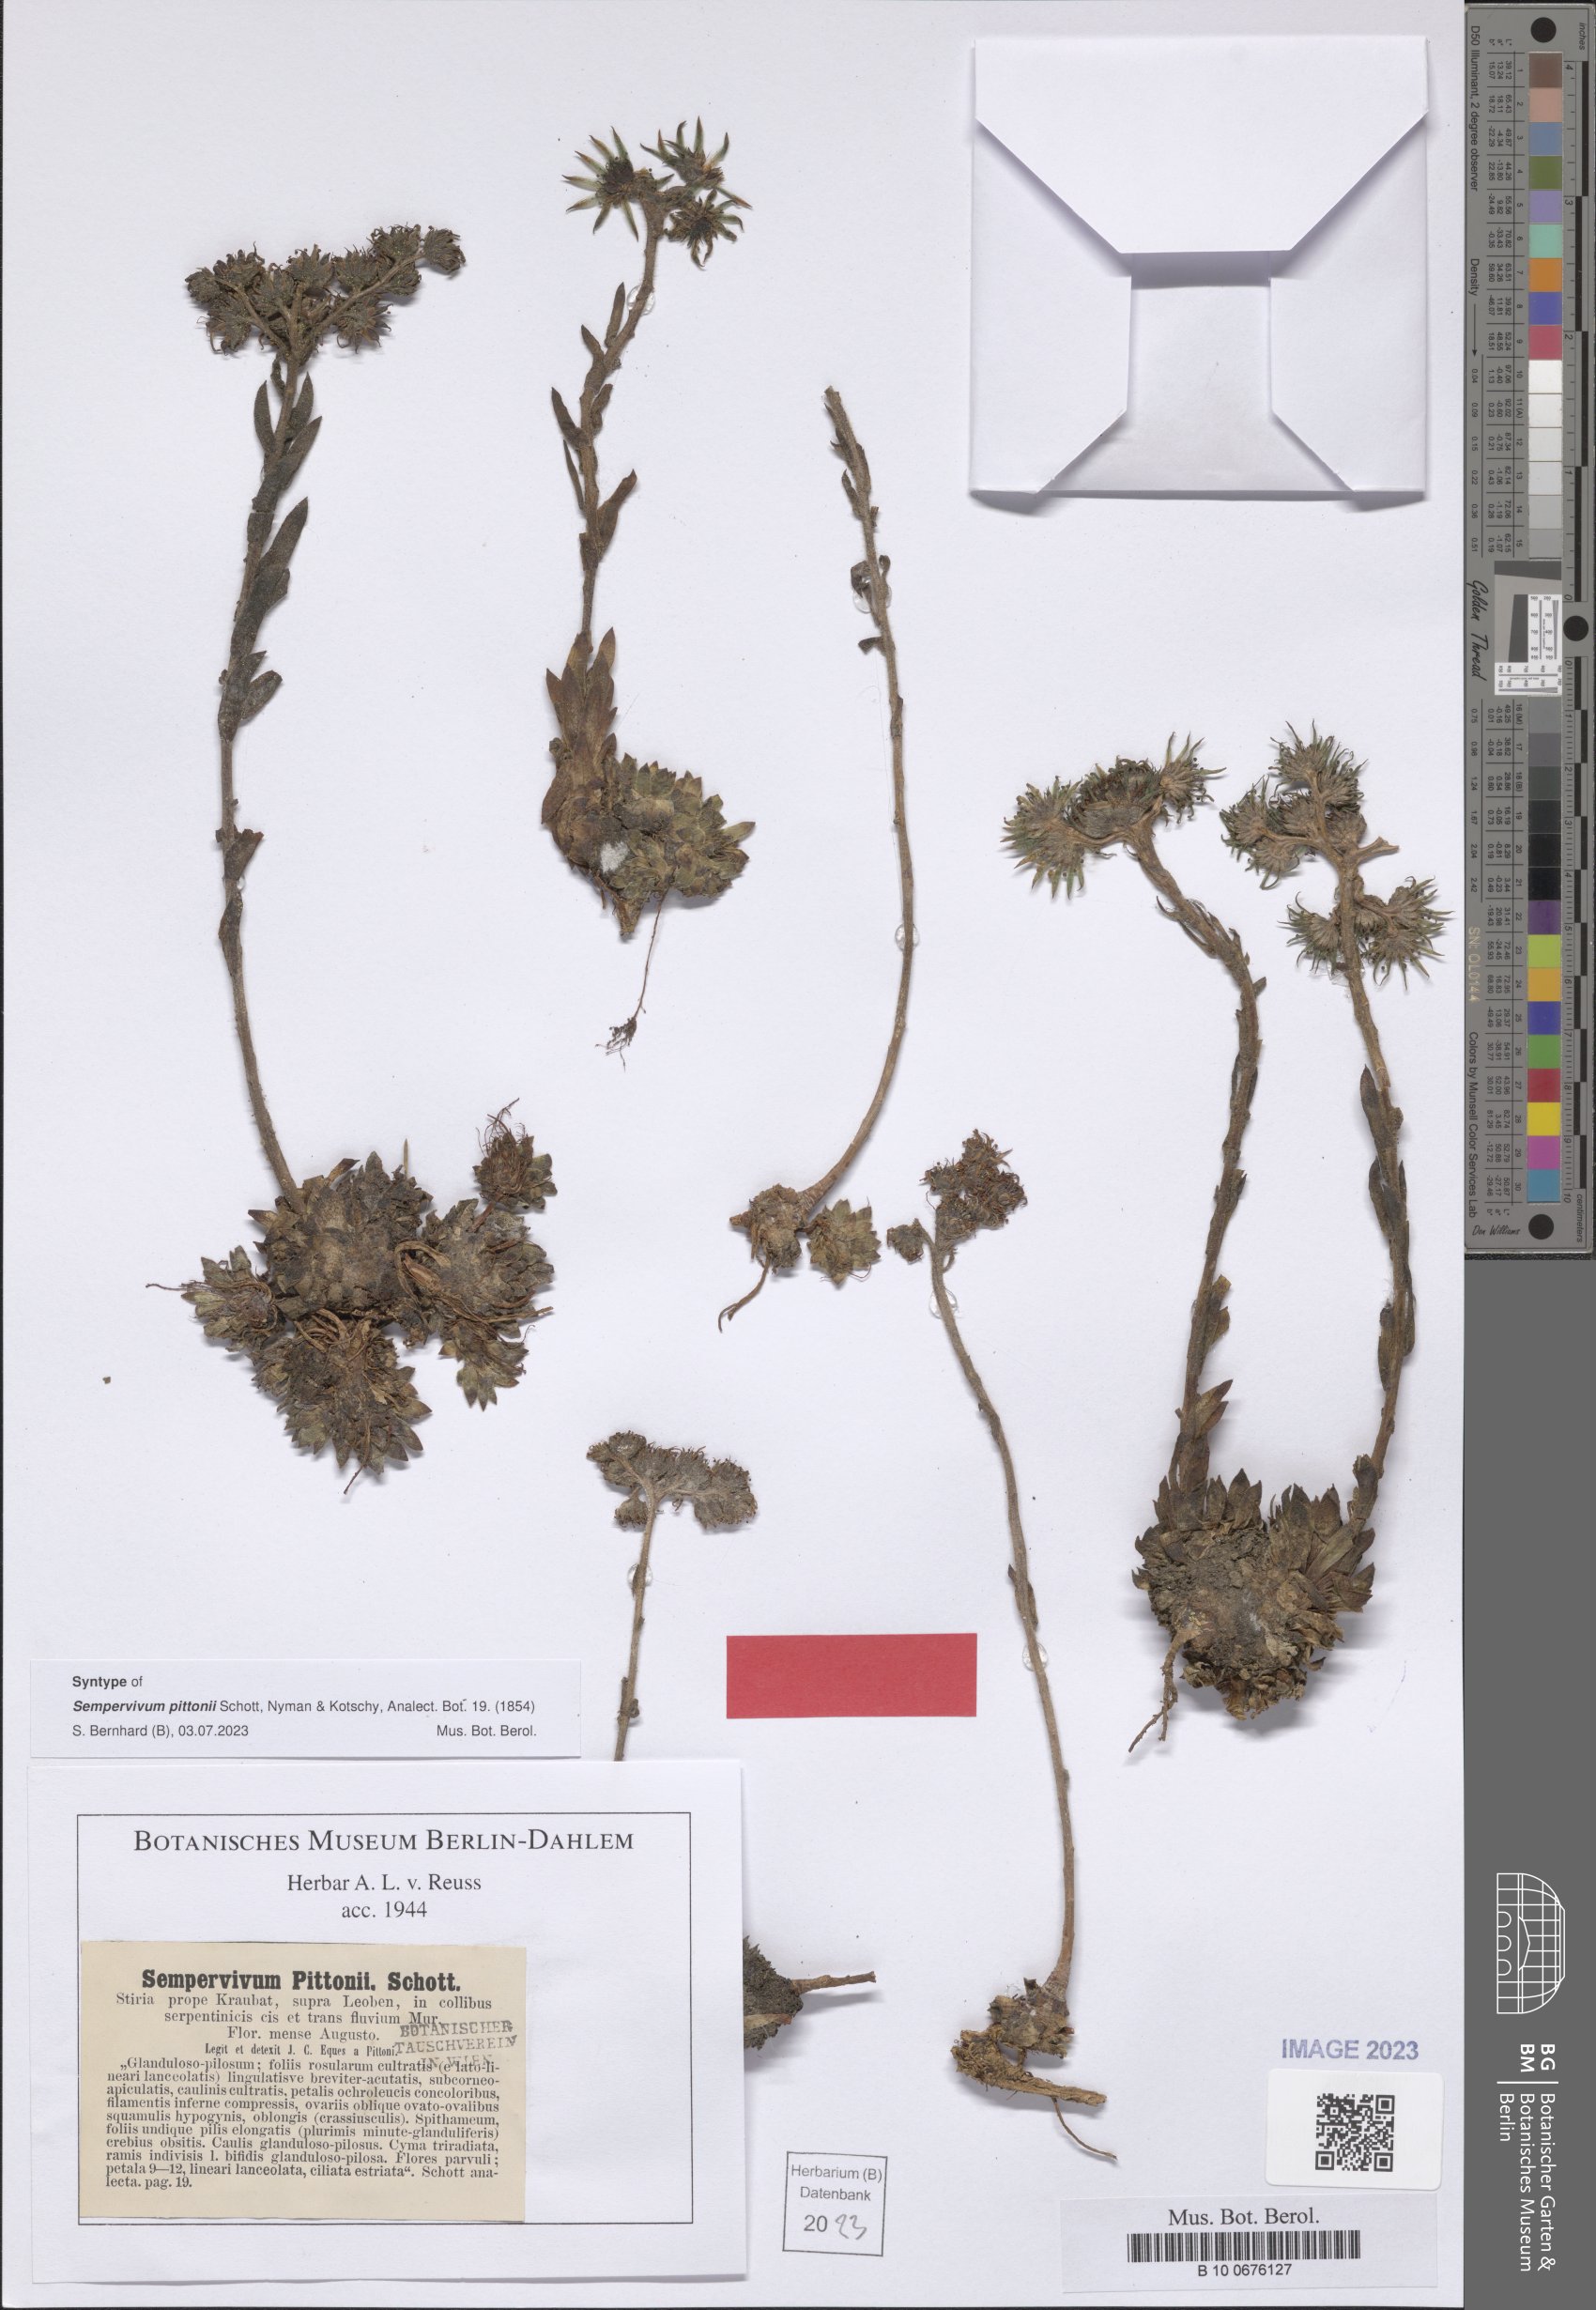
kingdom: Plantae
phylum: Tracheophyta
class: Magnoliopsida
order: Saxifragales
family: Crassulaceae
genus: Sempervivum
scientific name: Sempervivum pittonii
